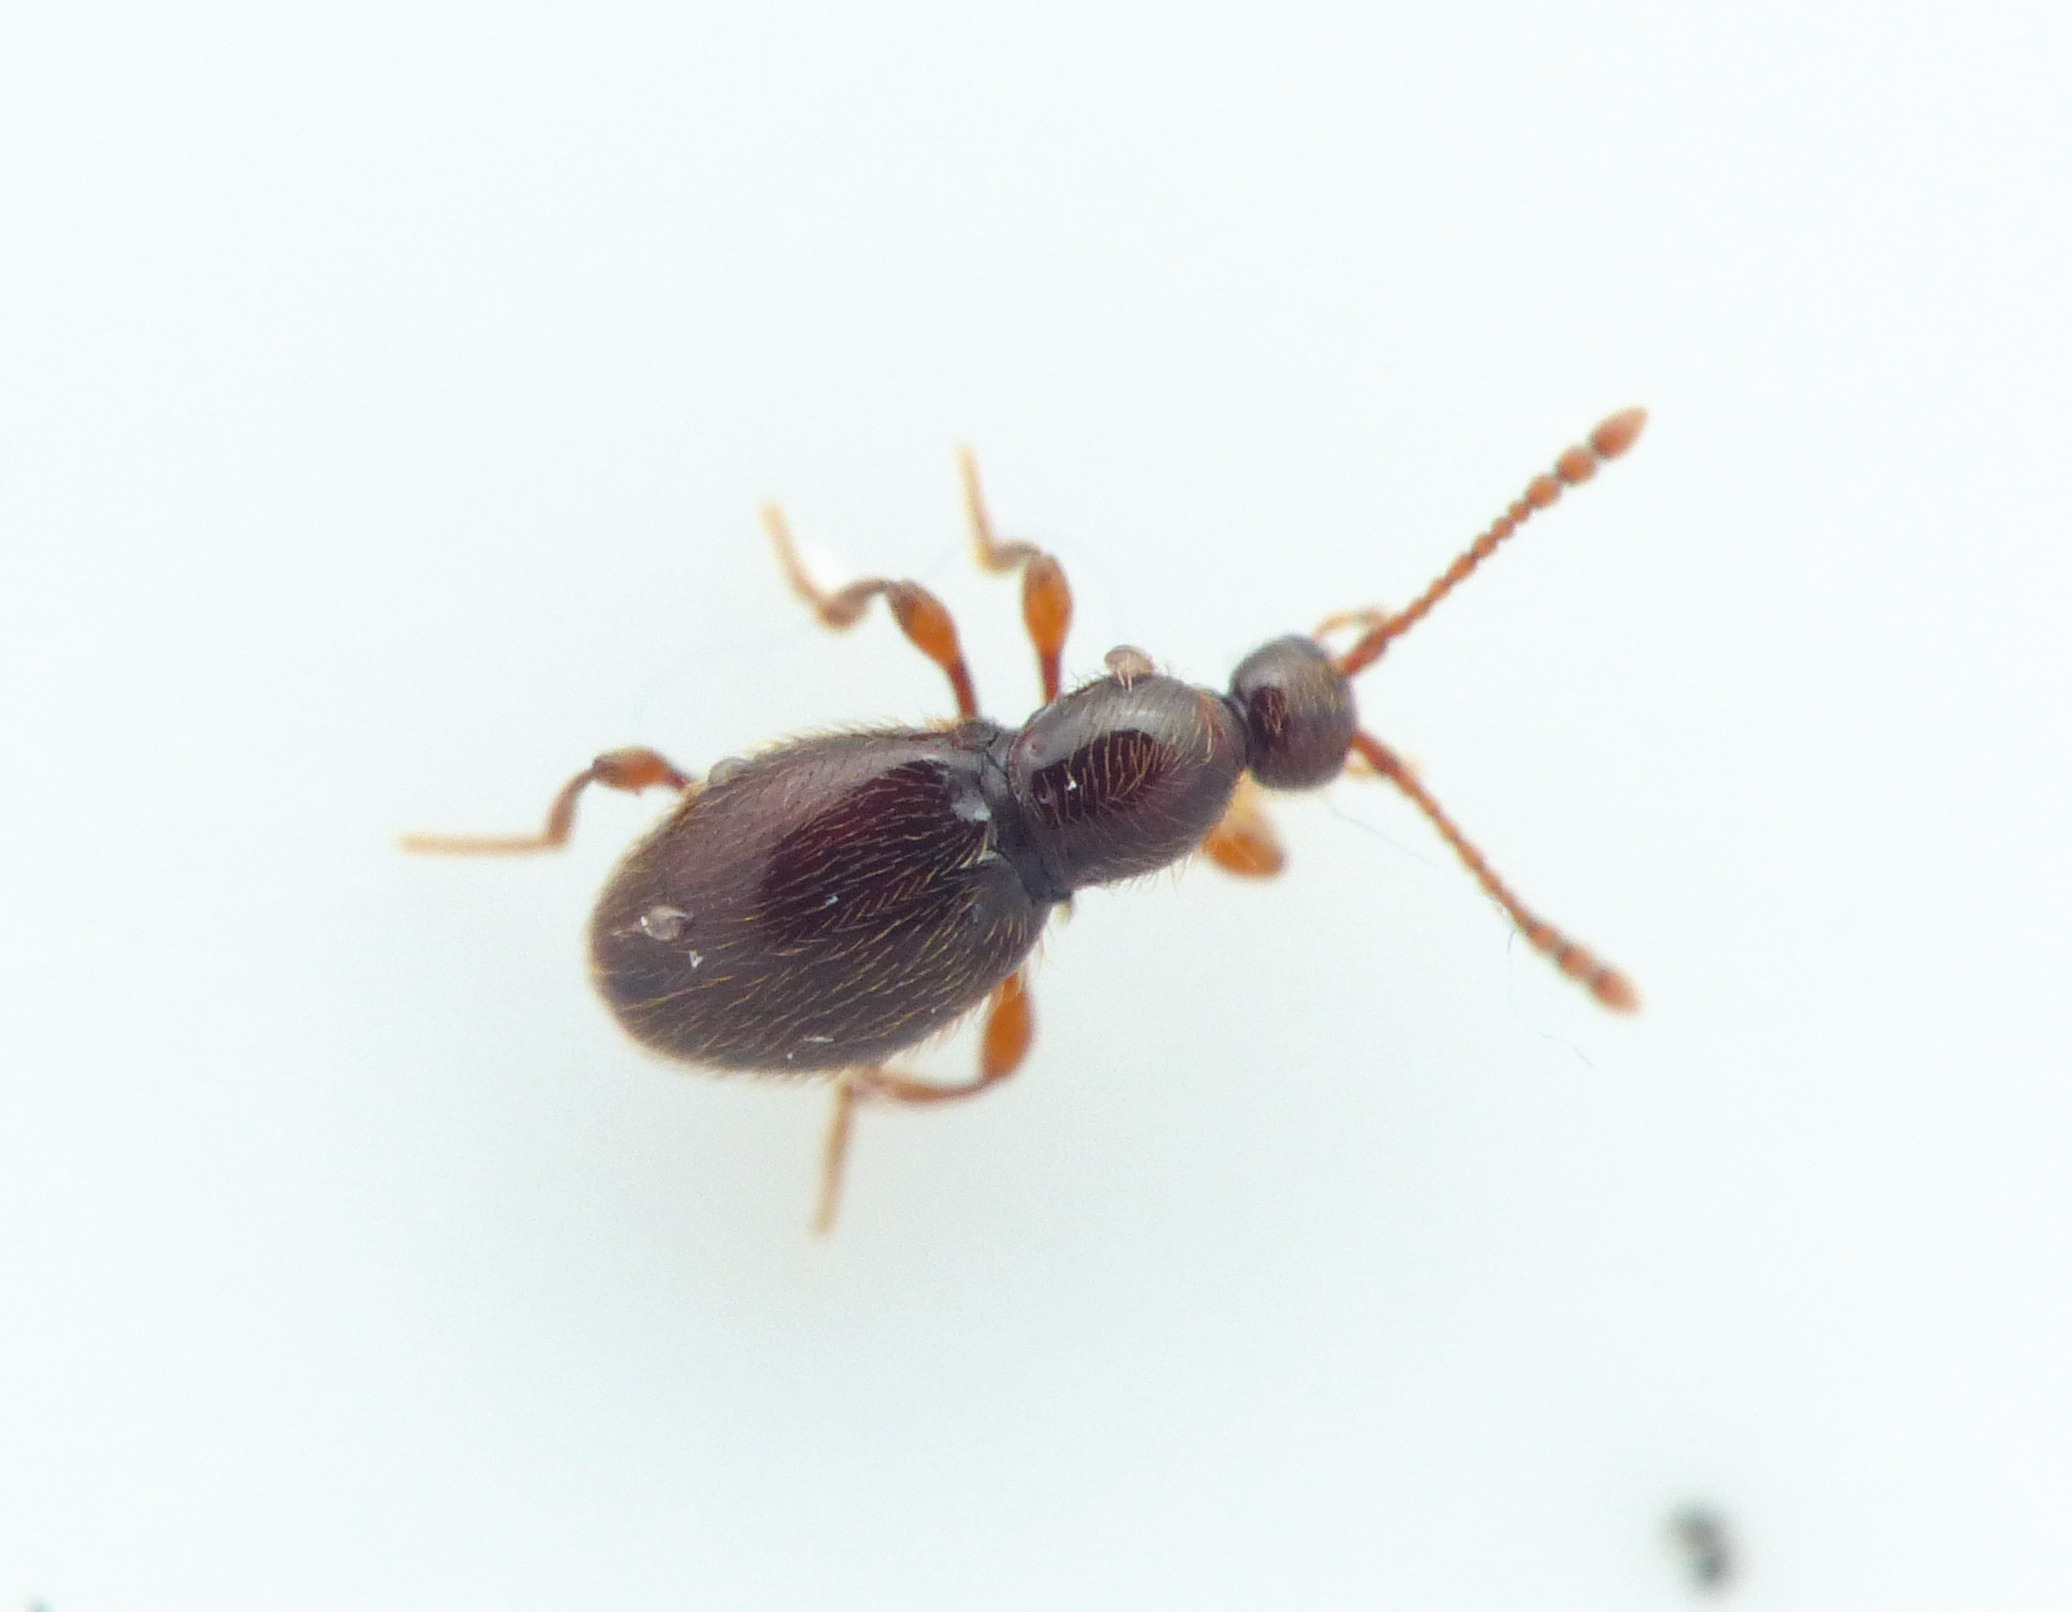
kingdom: Animalia
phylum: Arthropoda
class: Insecta
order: Coleoptera
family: Staphylinidae
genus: Scydmaenus
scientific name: Scydmaenus tarsatus
